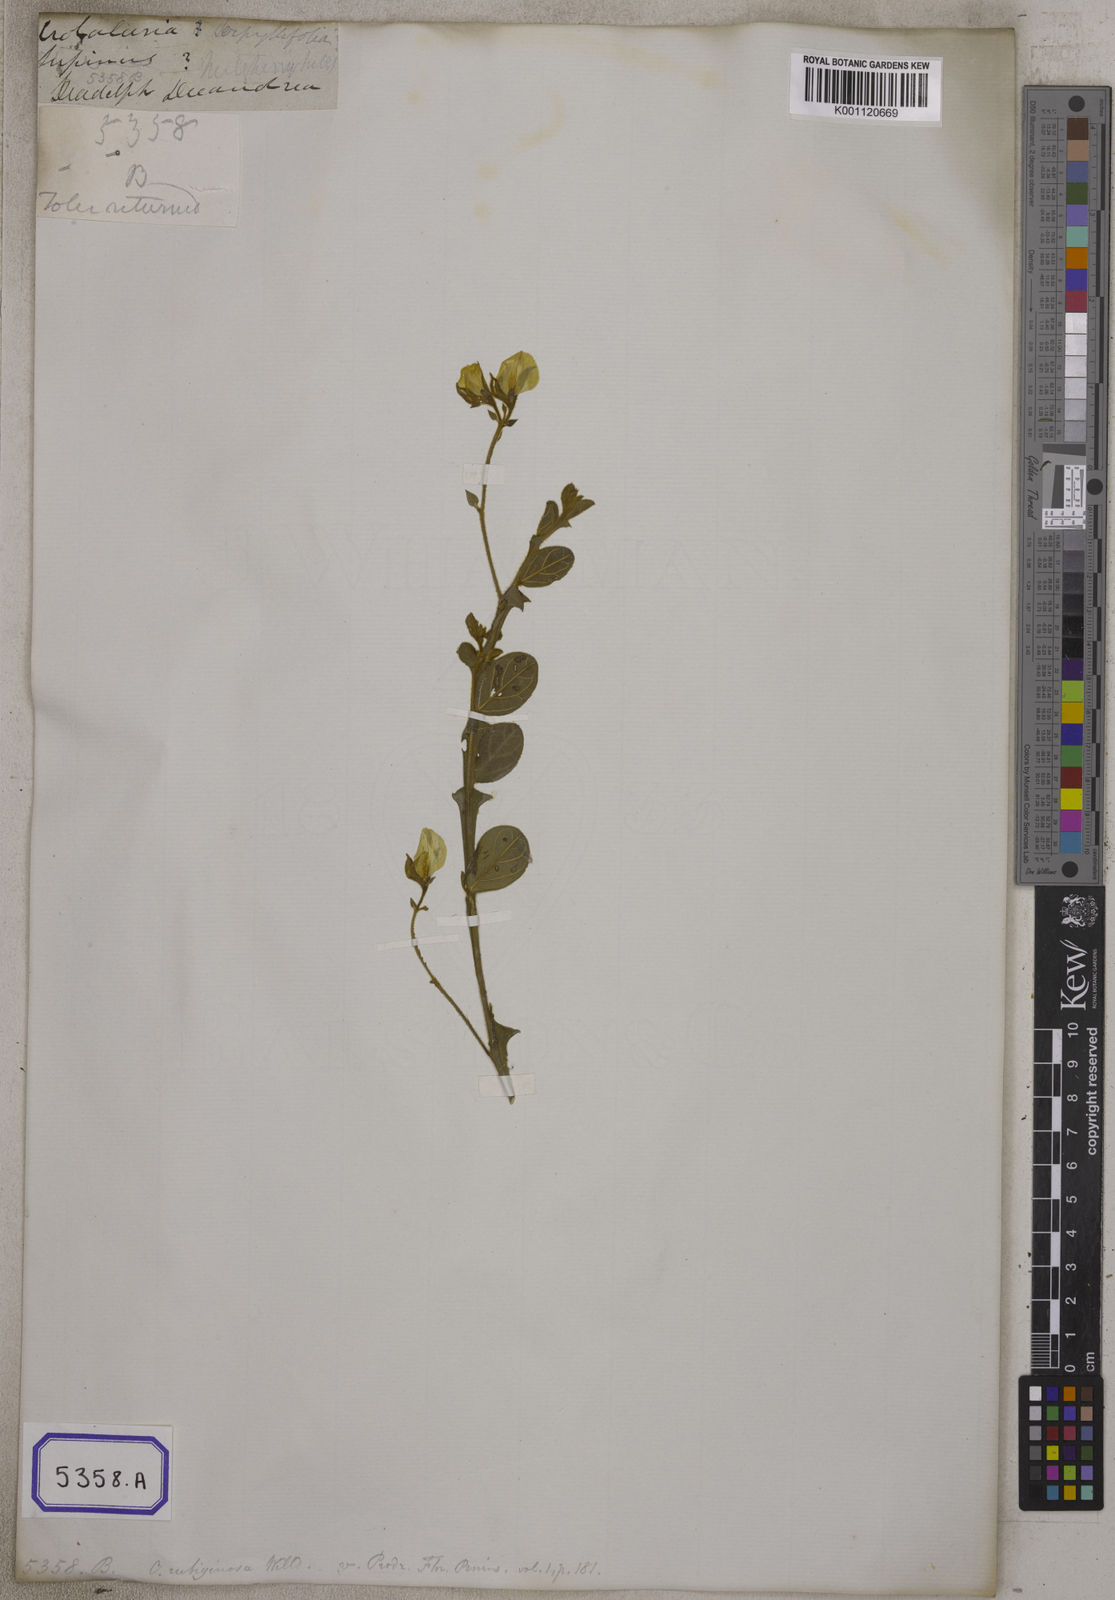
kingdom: Plantae
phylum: Tracheophyta
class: Magnoliopsida
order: Fabales
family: Fabaceae
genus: Crotalaria
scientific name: Crotalaria
